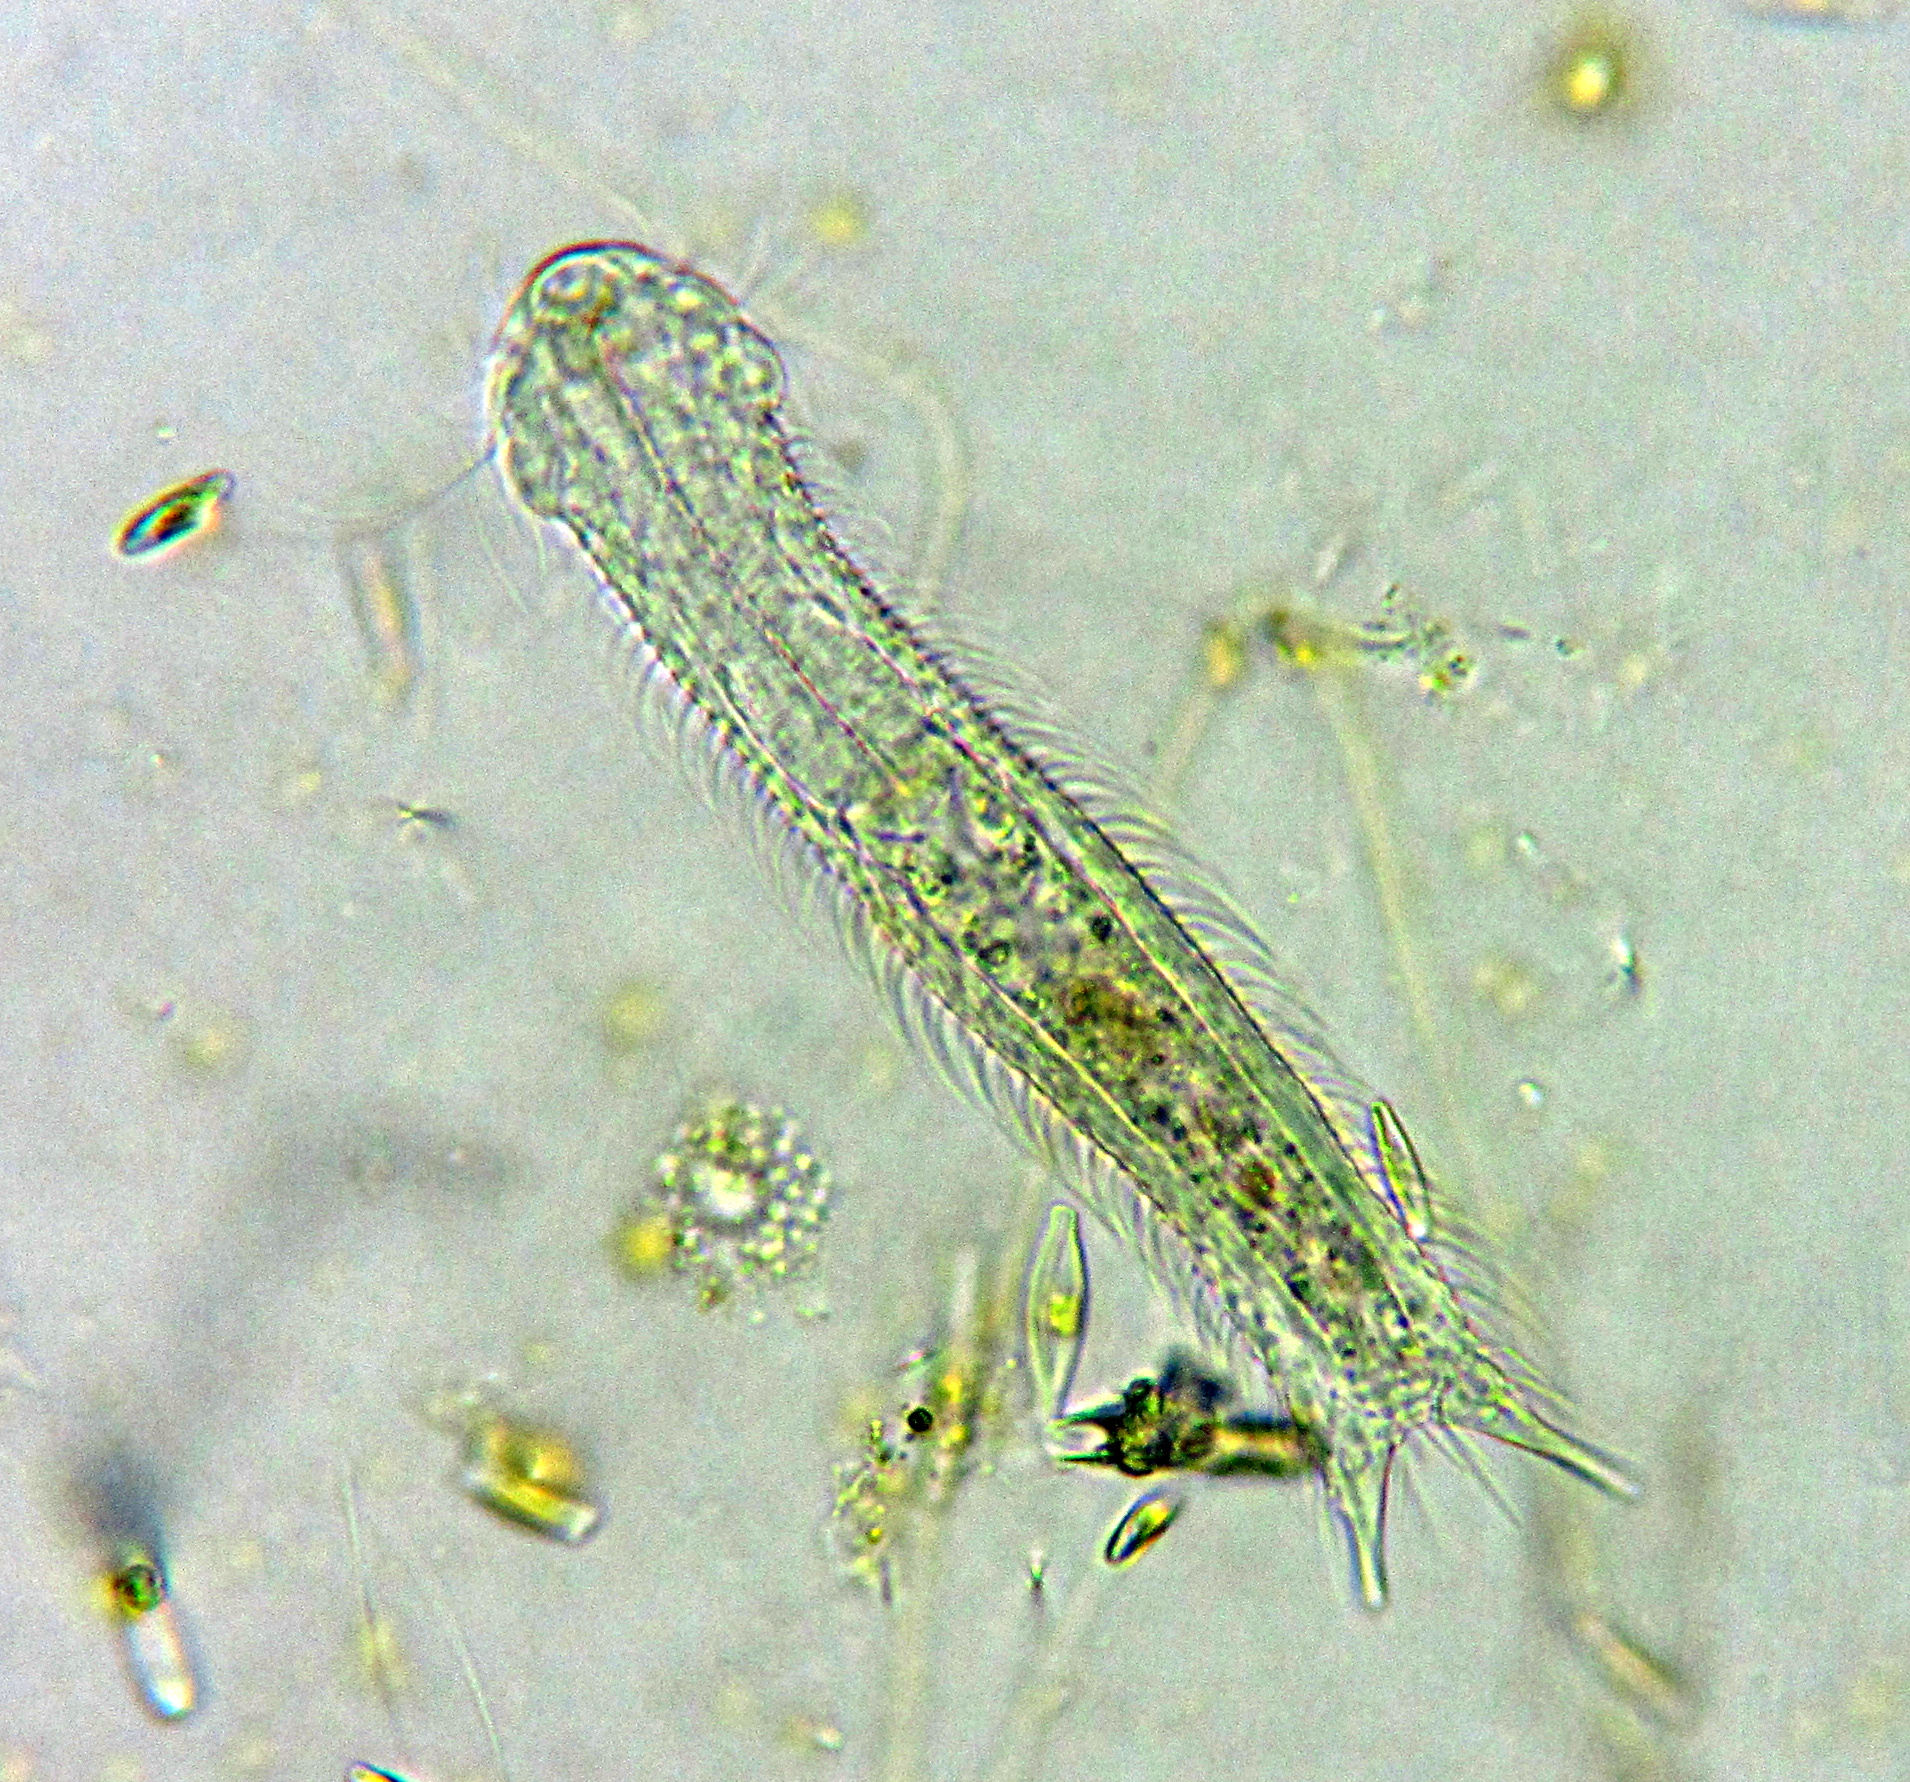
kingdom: Animalia
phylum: Gastrotricha
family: Chaetonotidae
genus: Chaetonotus
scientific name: Chaetonotus maximus
